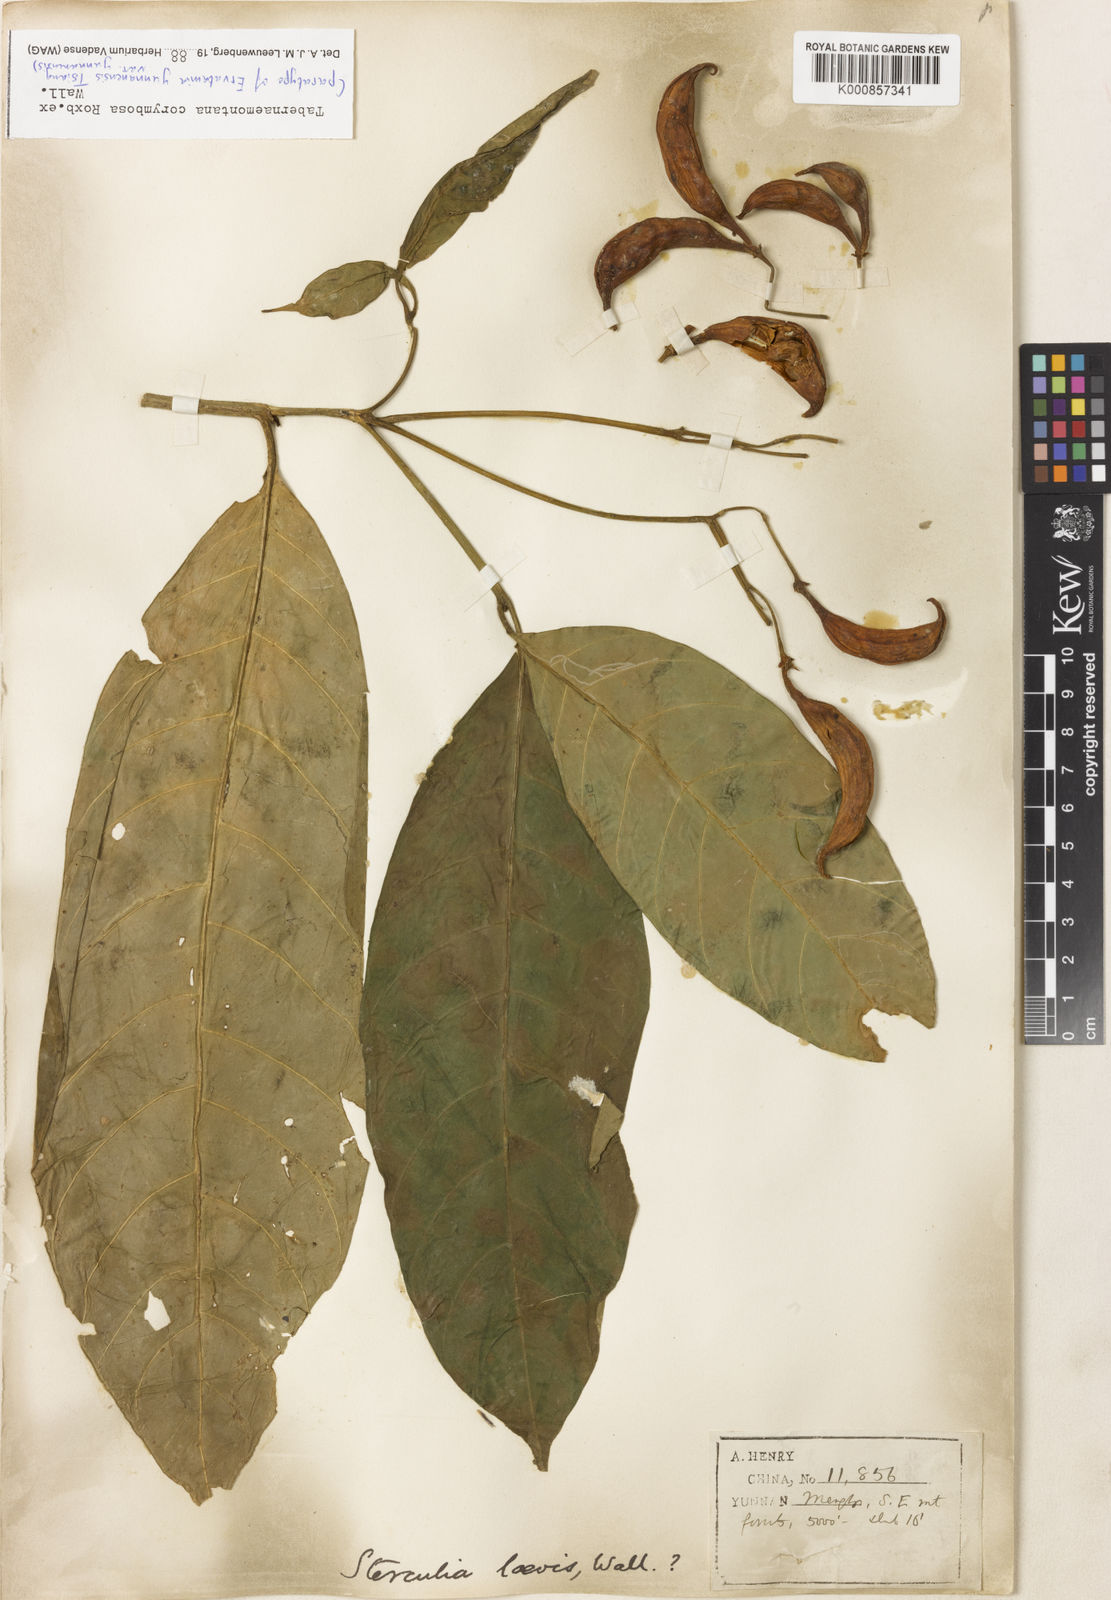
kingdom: Plantae
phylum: Tracheophyta
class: Magnoliopsida
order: Gentianales
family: Apocynaceae
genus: Tabernaemontana
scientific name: Tabernaemontana corymbosa
